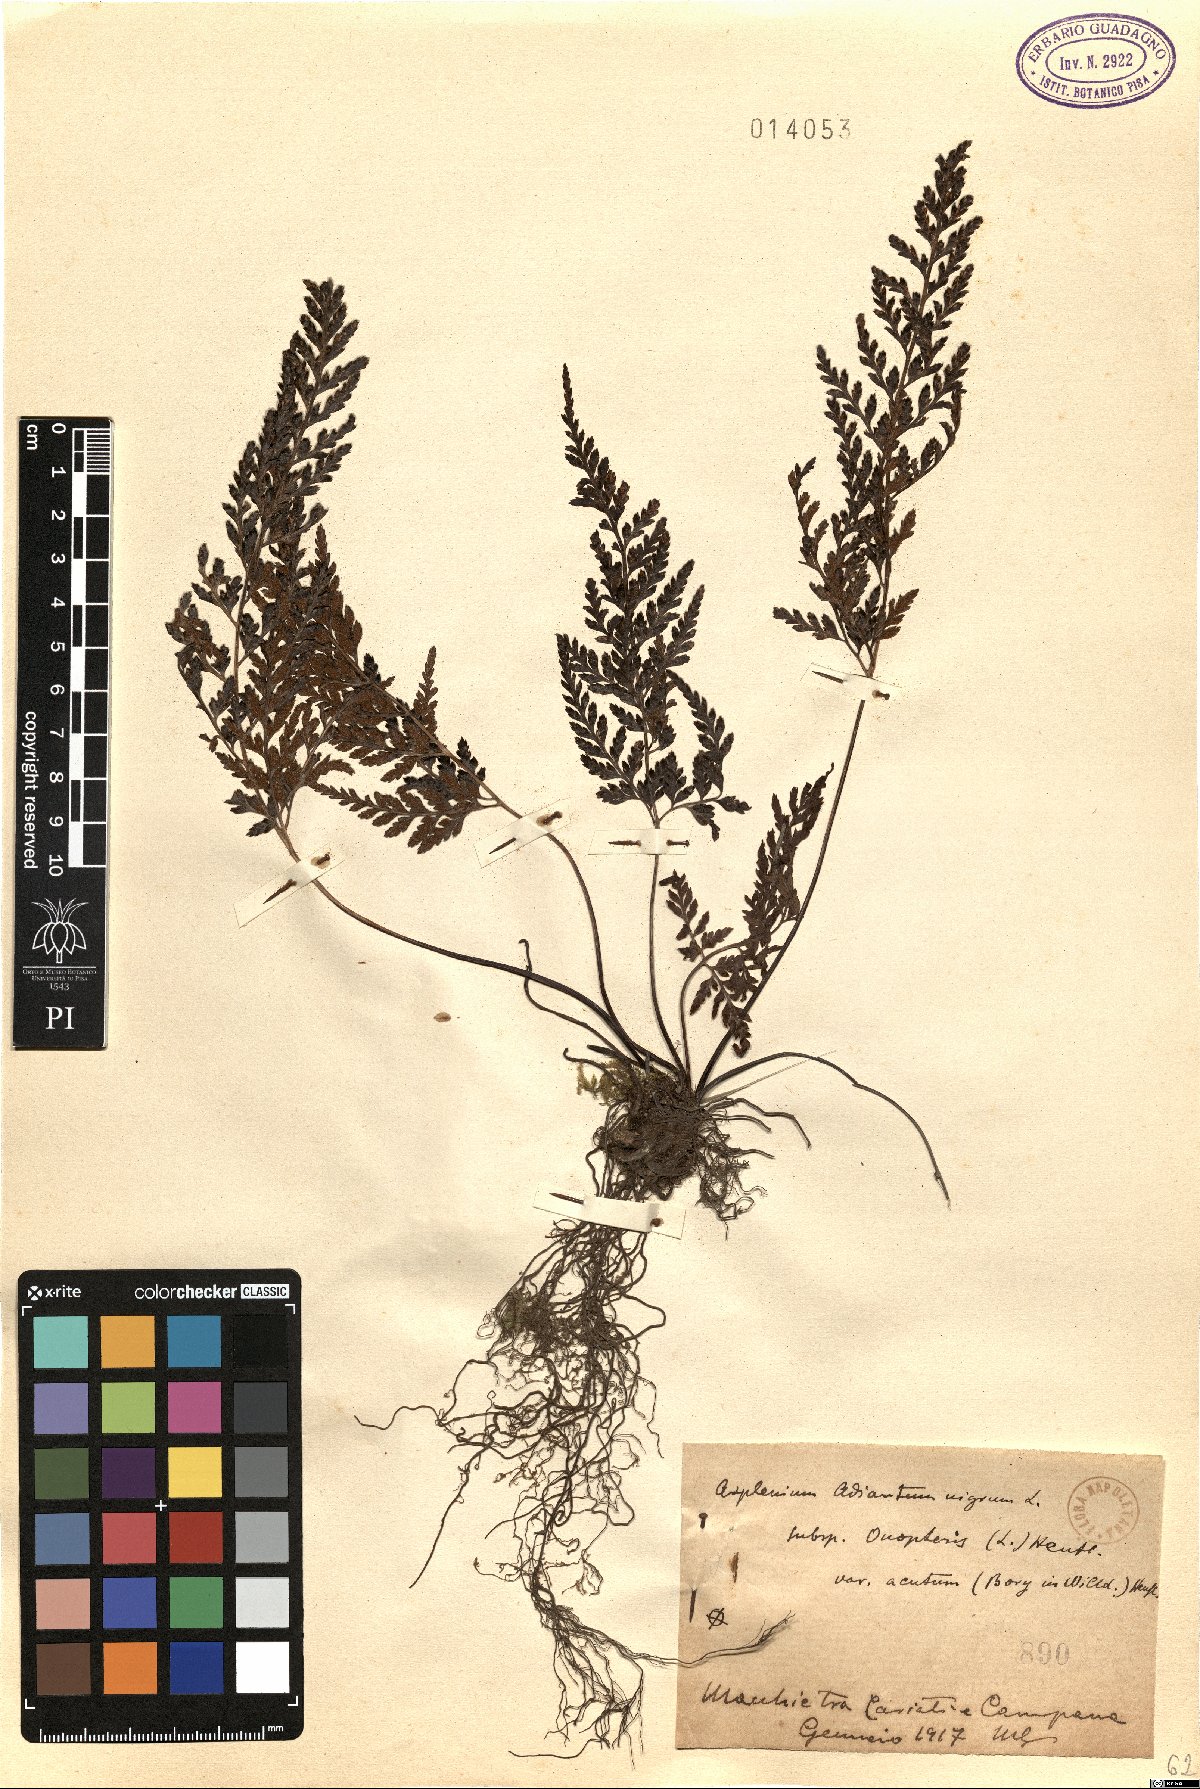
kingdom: Plantae
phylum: Tracheophyta
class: Polypodiopsida
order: Polypodiales
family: Aspleniaceae
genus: Asplenium
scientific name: Asplenium onopteris
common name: Irish spleenwort
